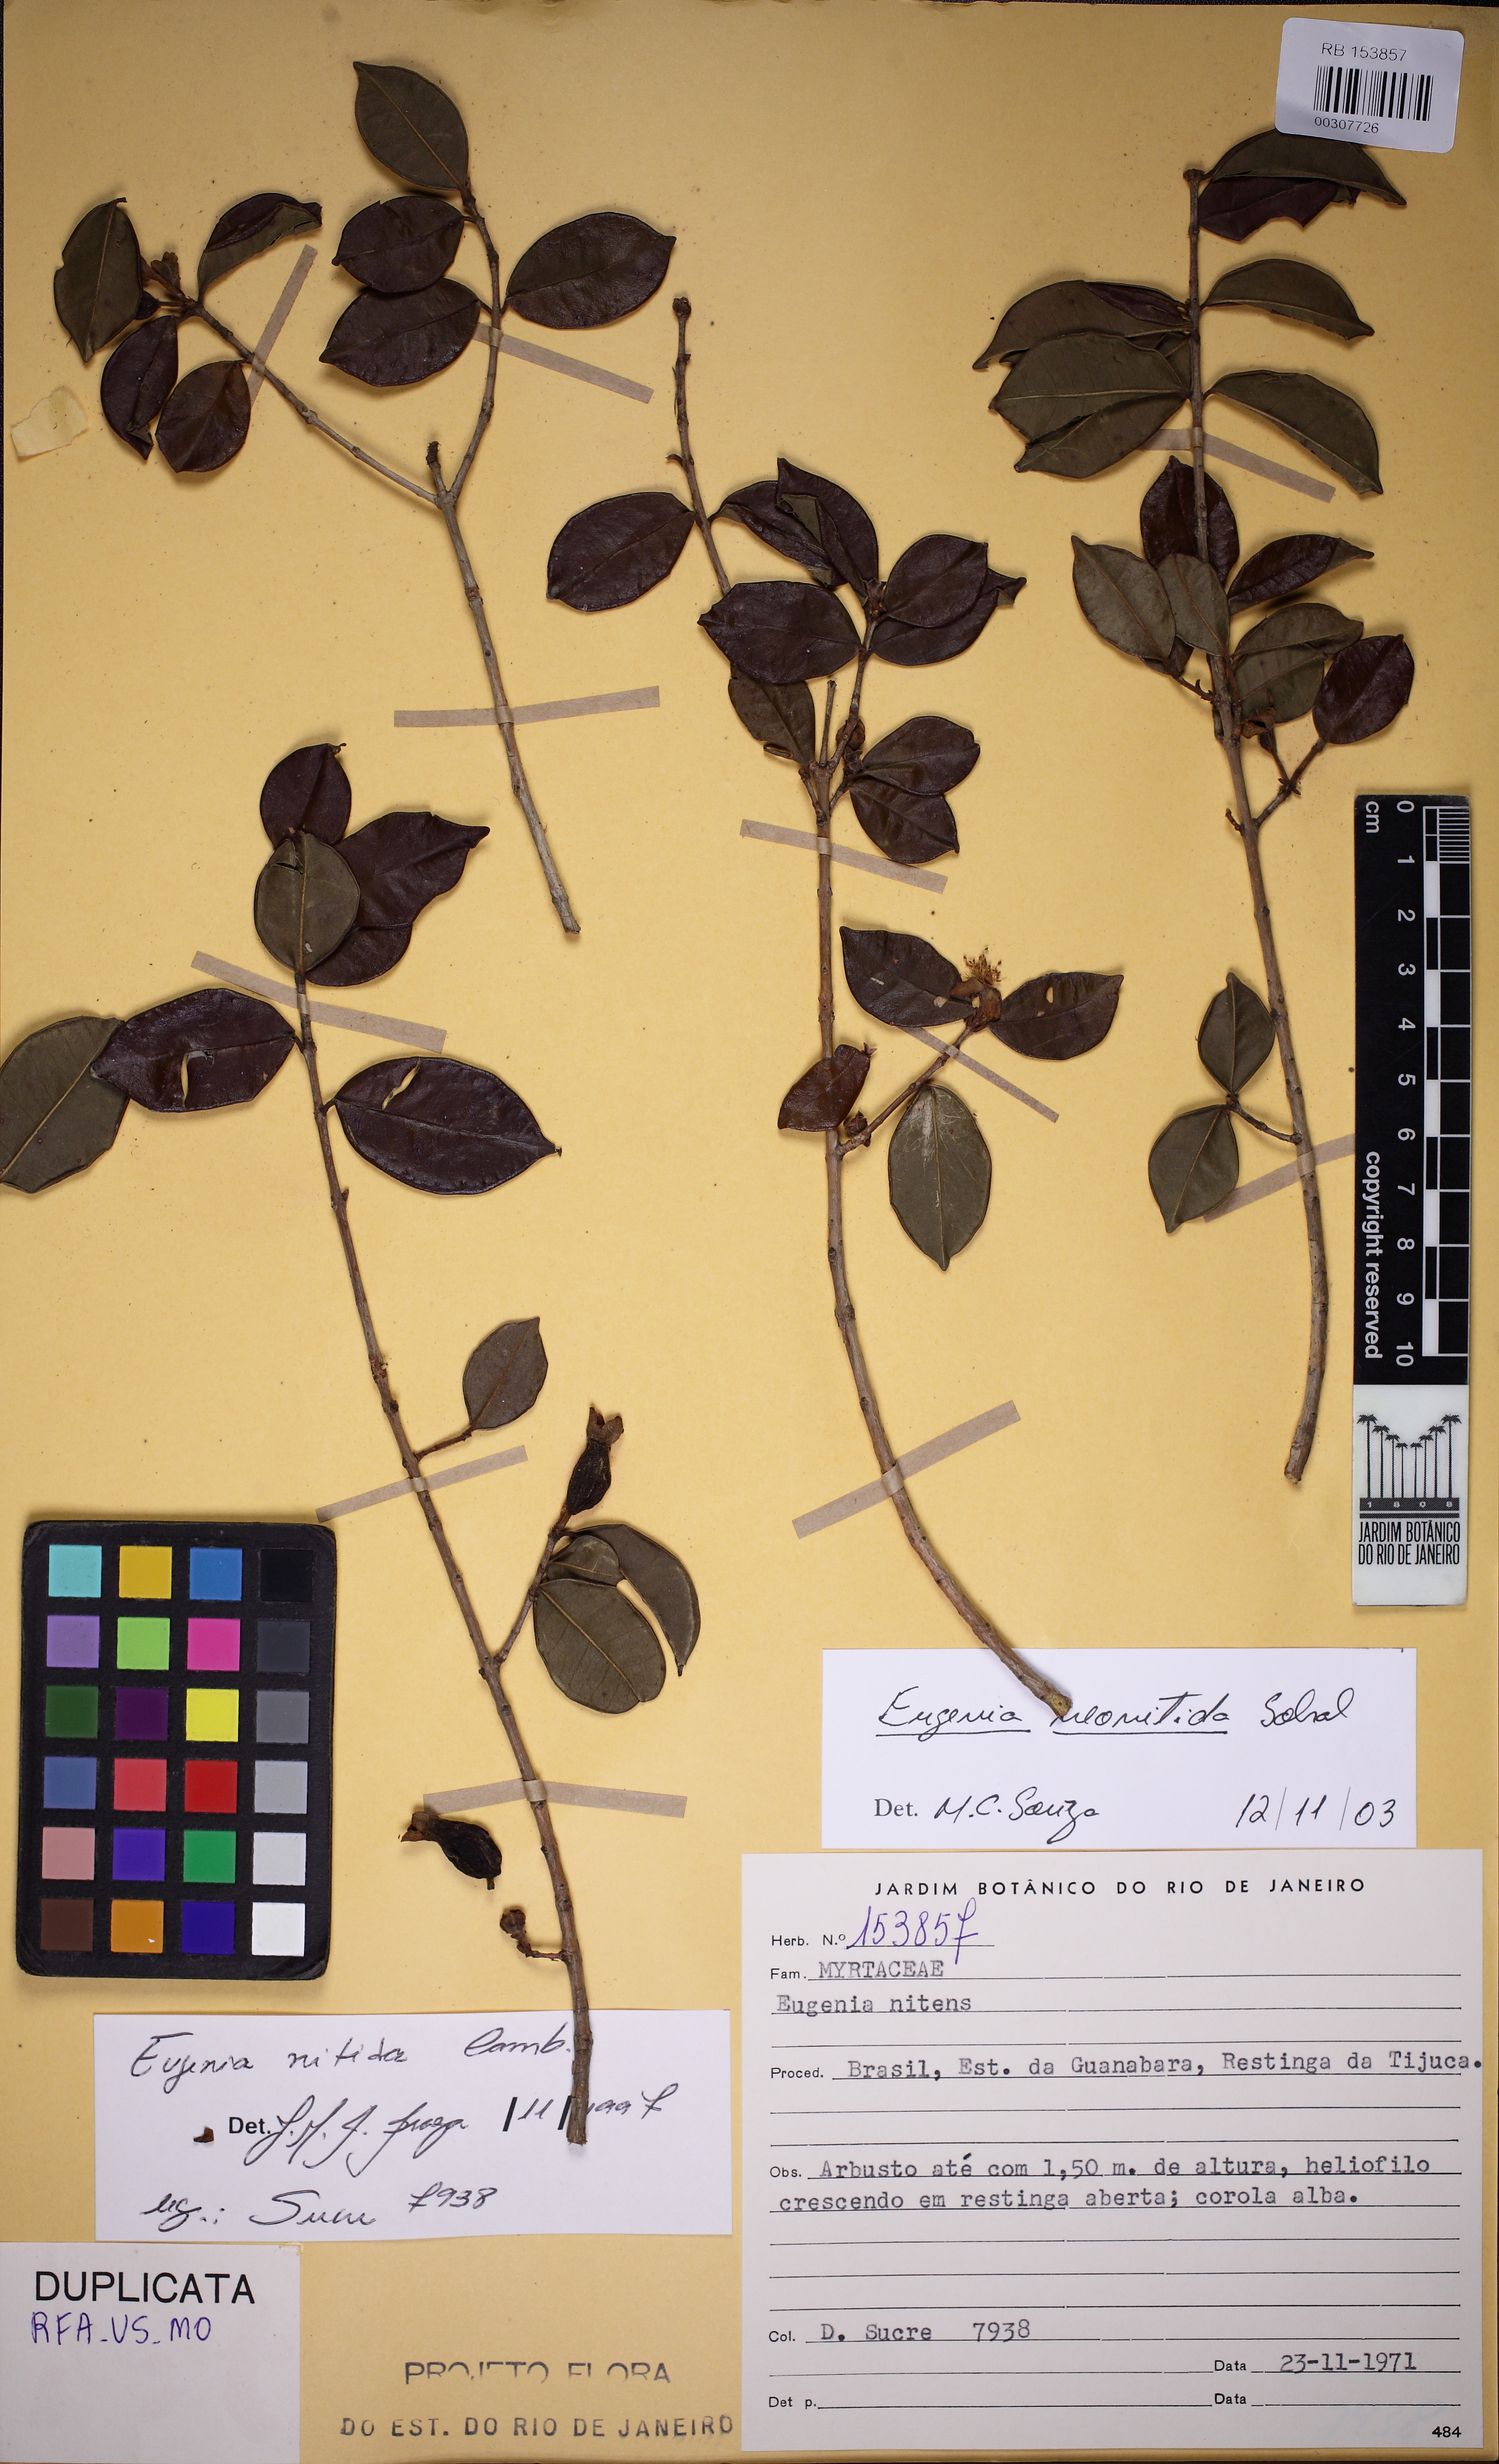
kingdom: Plantae
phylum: Tracheophyta
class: Magnoliopsida
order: Myrtales
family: Myrtaceae
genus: Eugenia
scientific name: Eugenia selloi
